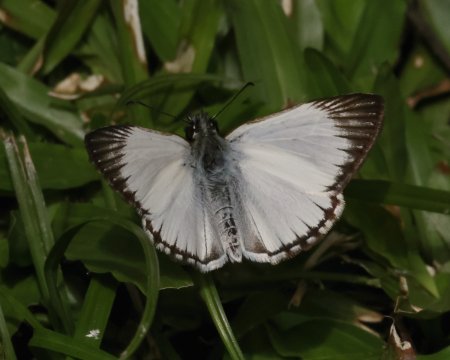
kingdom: Animalia
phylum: Arthropoda
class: Insecta
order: Lepidoptera
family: Hesperiidae
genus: Heliopetes
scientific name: Heliopetes arsalte
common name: Veined White-Skipper
